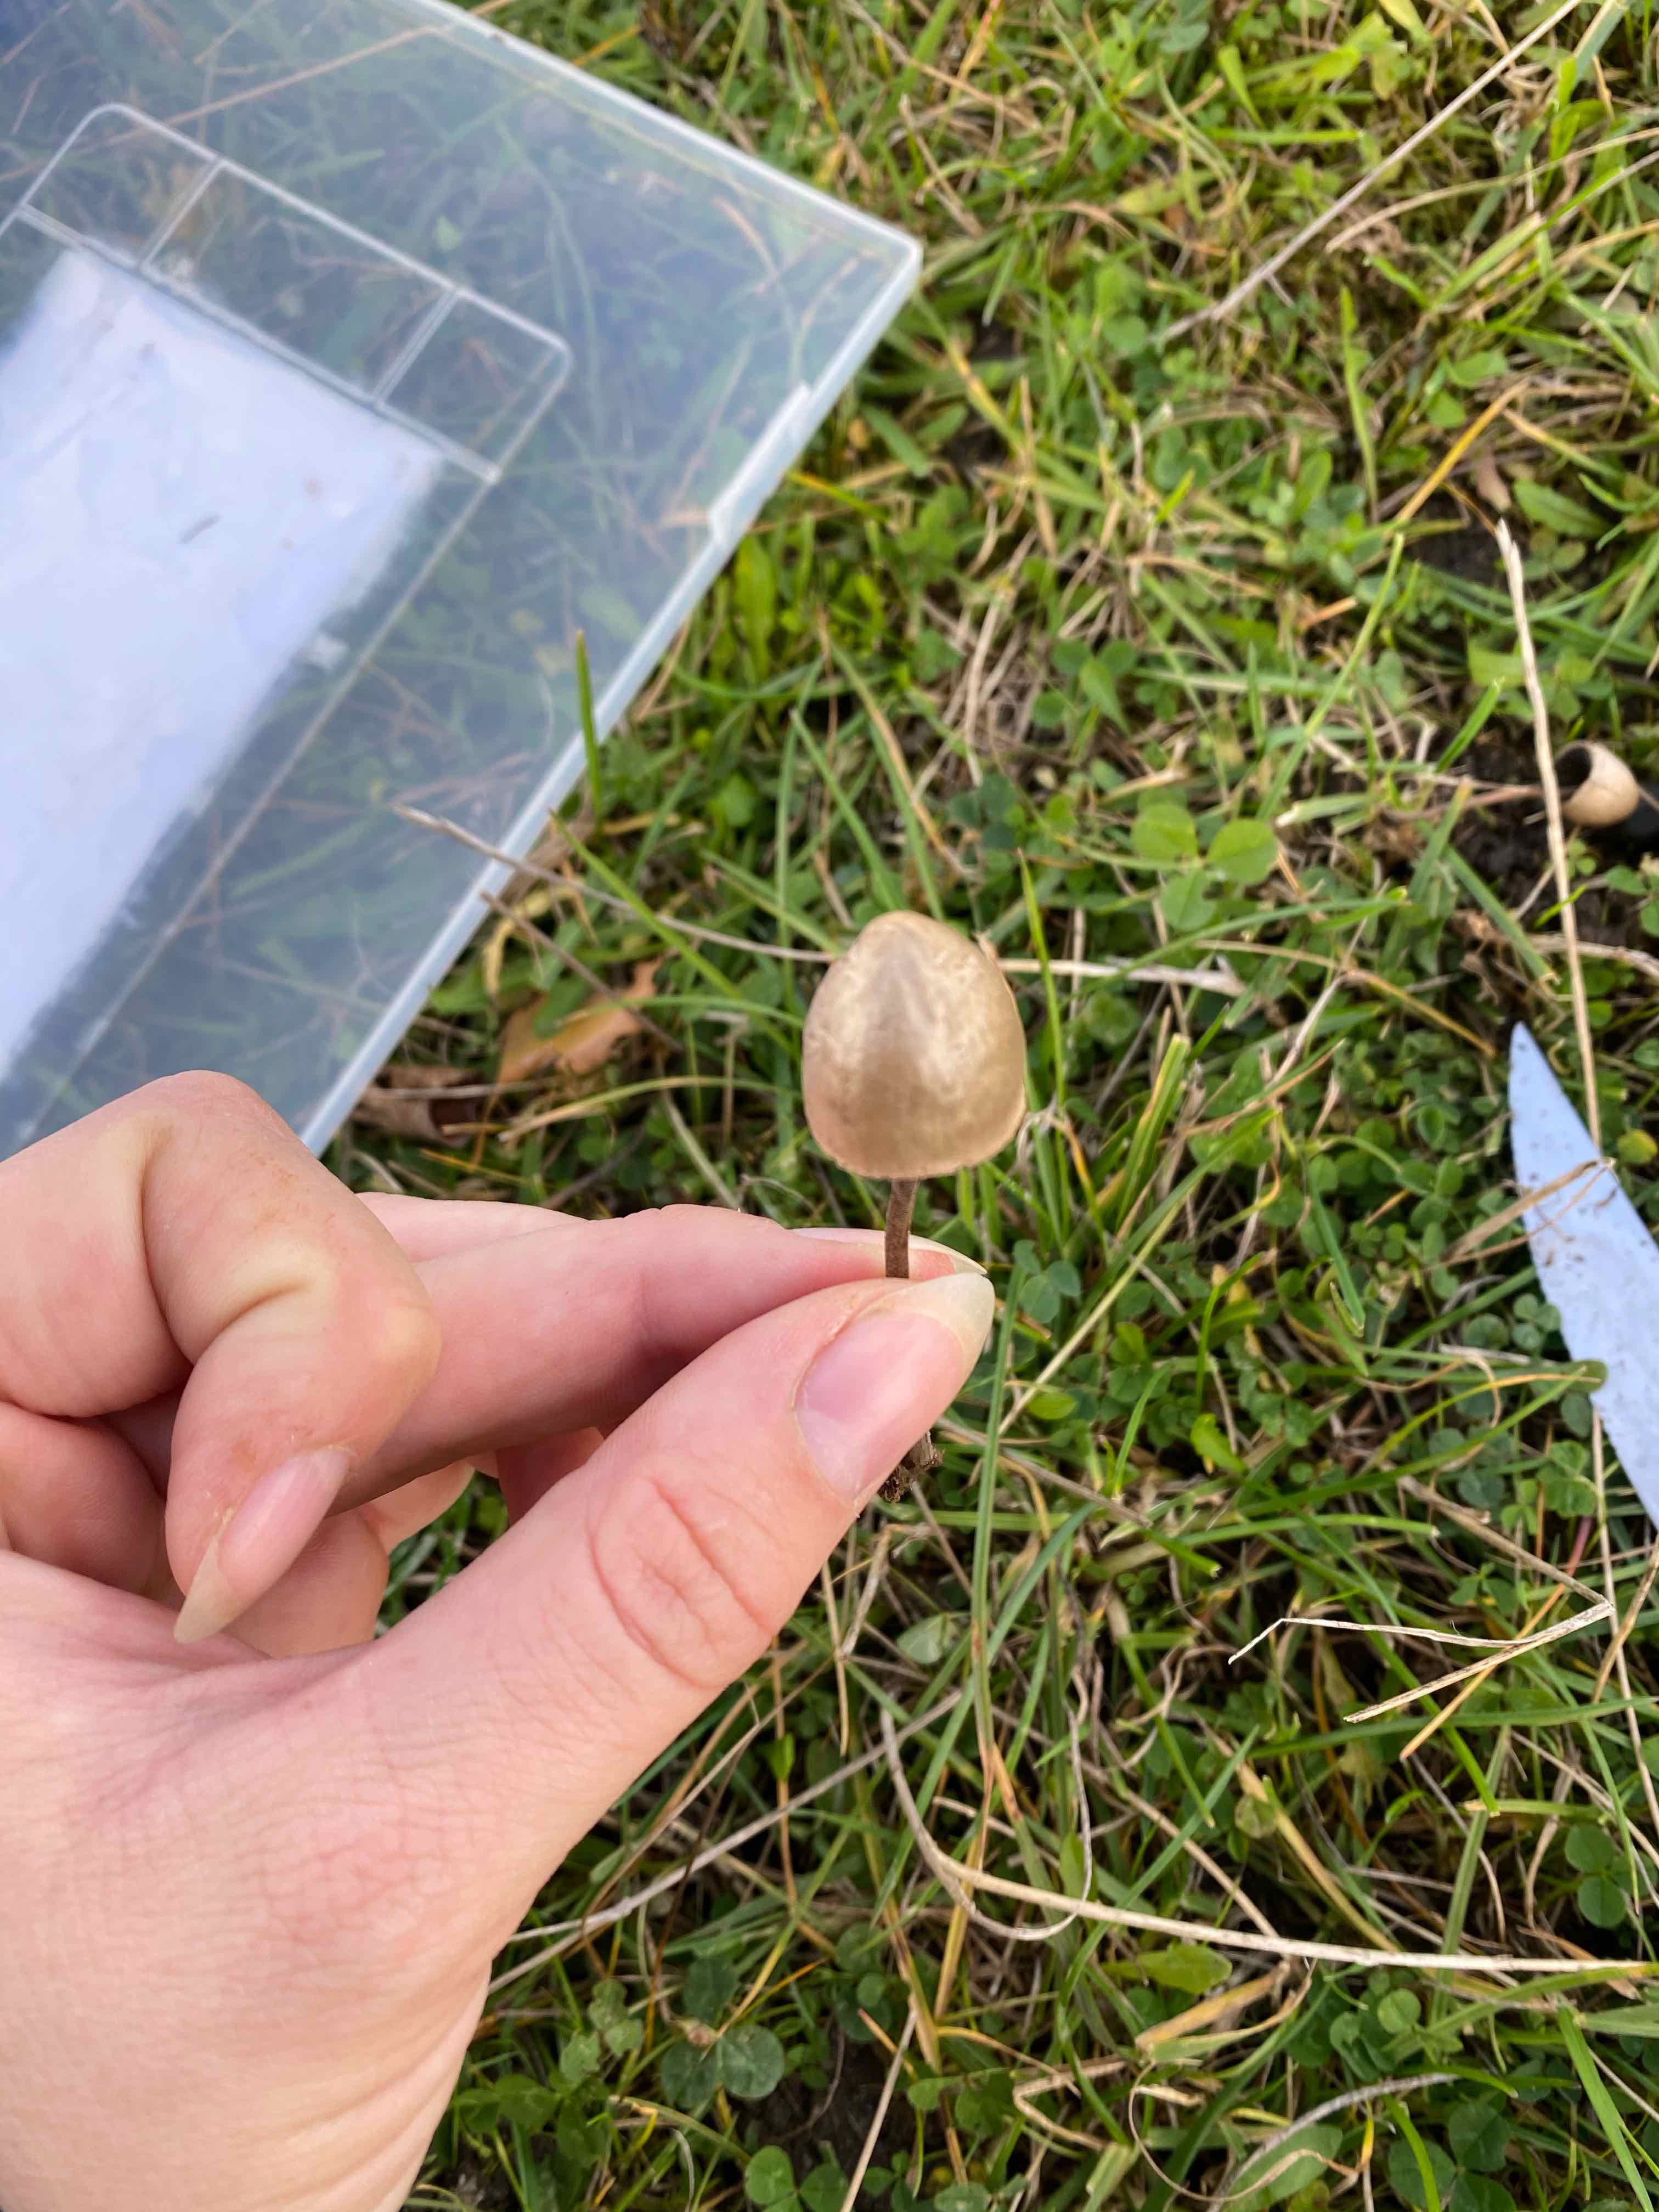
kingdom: Fungi
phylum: Basidiomycota
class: Agaricomycetes
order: Agaricales
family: Bolbitiaceae
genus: Panaeolus
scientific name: Panaeolus
